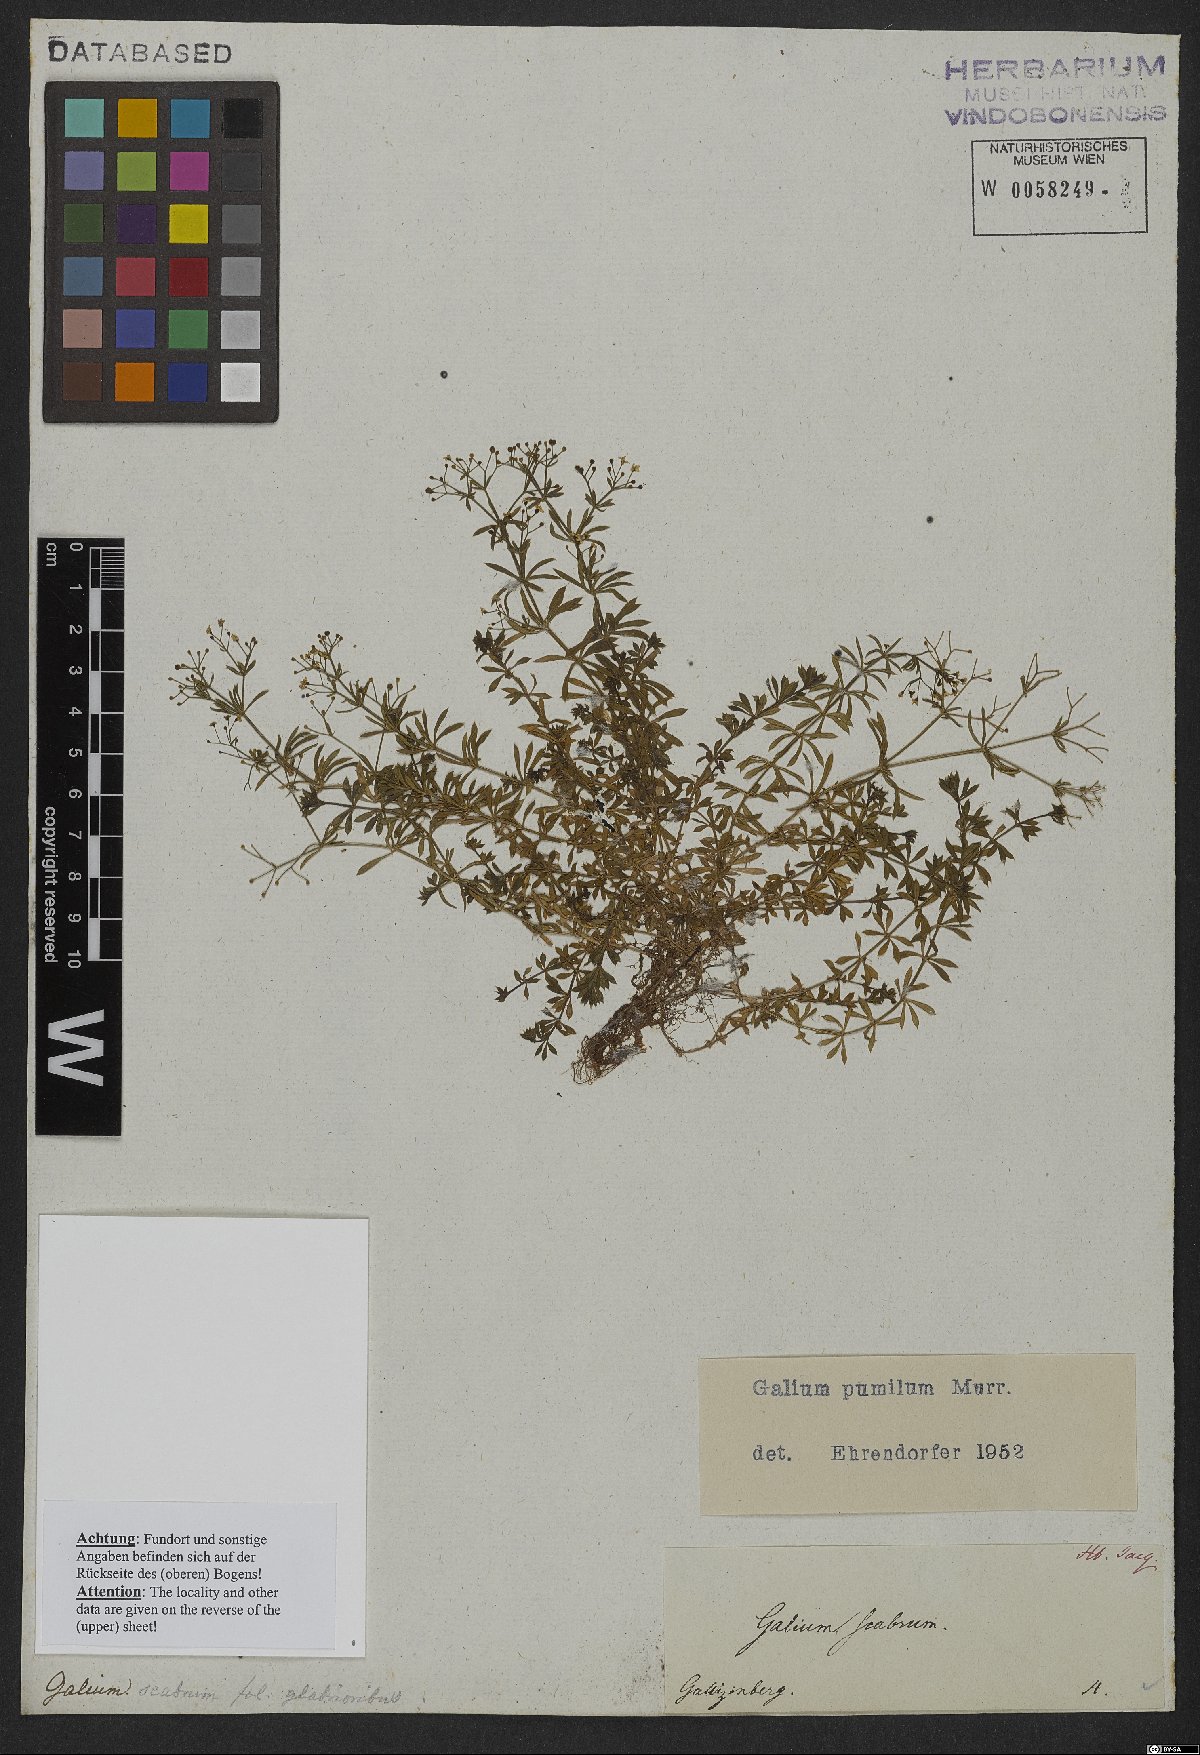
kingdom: Plantae
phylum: Tracheophyta
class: Magnoliopsida
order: Gentianales
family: Rubiaceae
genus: Galium
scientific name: Galium pumilum
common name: Slender bedstraw
